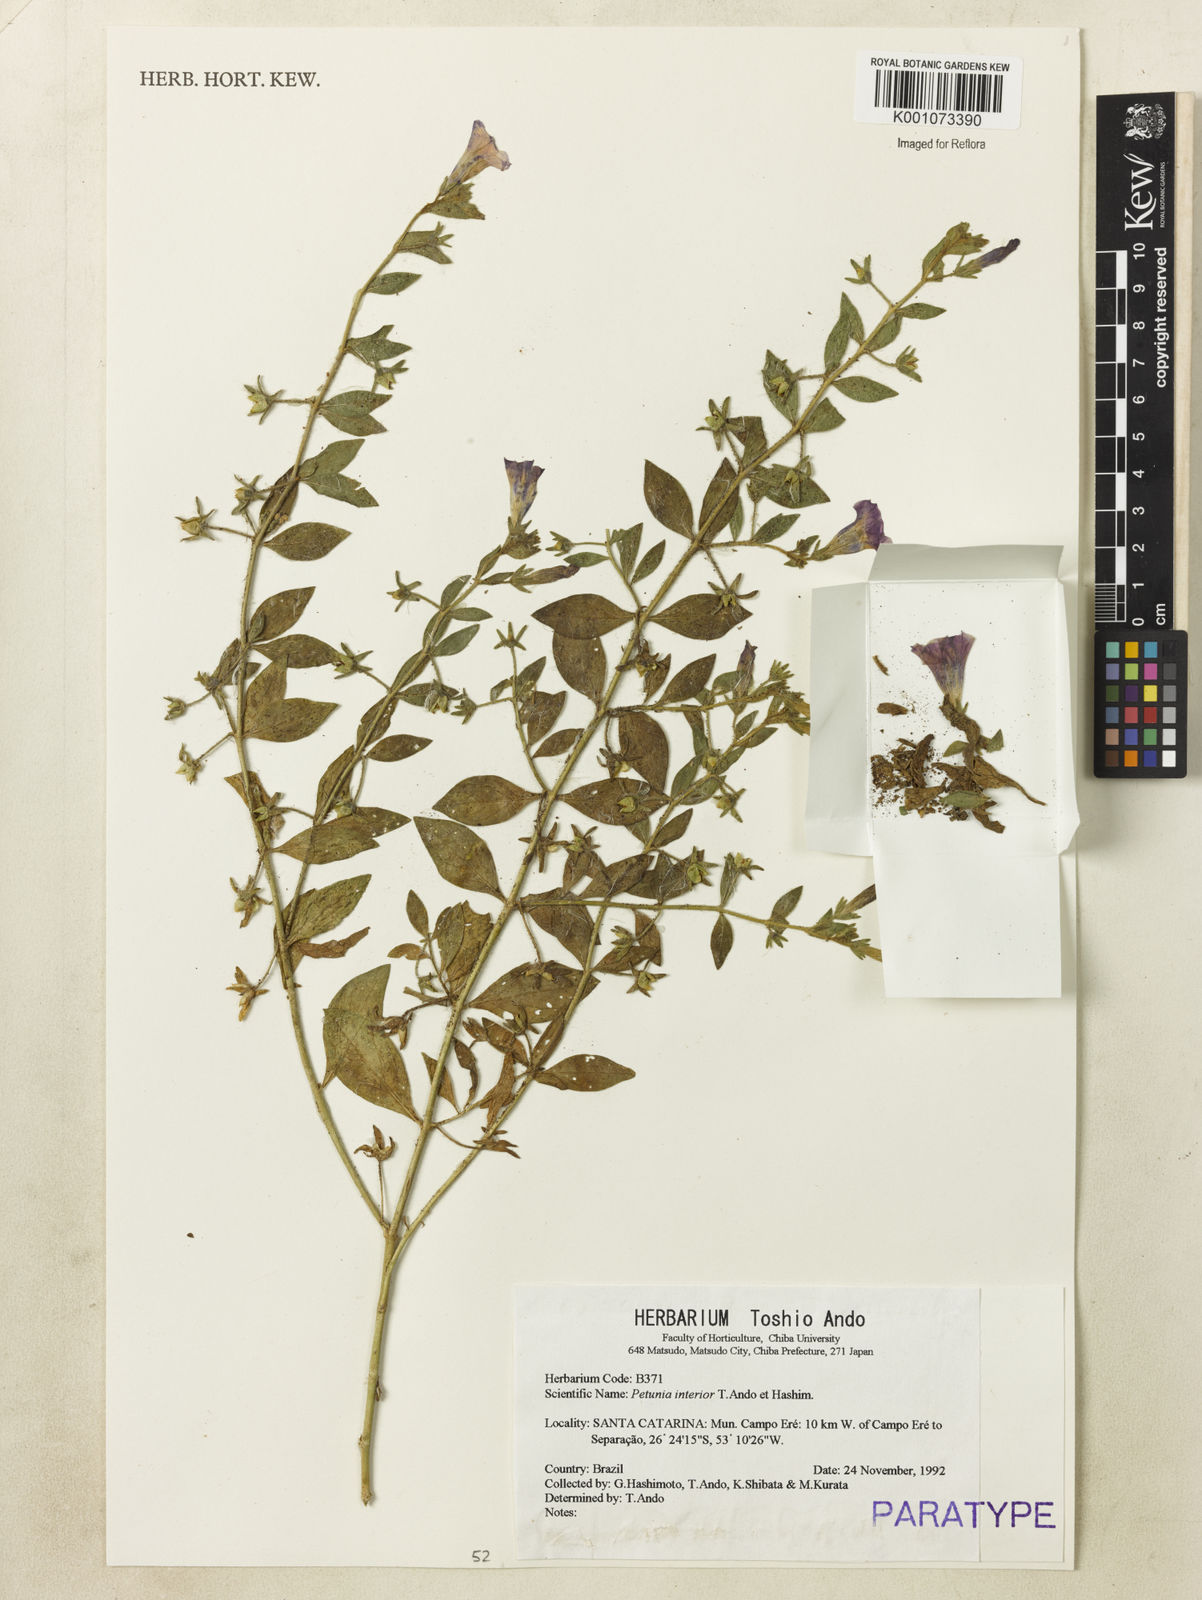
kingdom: Plantae
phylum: Tracheophyta
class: Magnoliopsida
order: Solanales
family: Solanaceae
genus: Petunia
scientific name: Petunia interior
